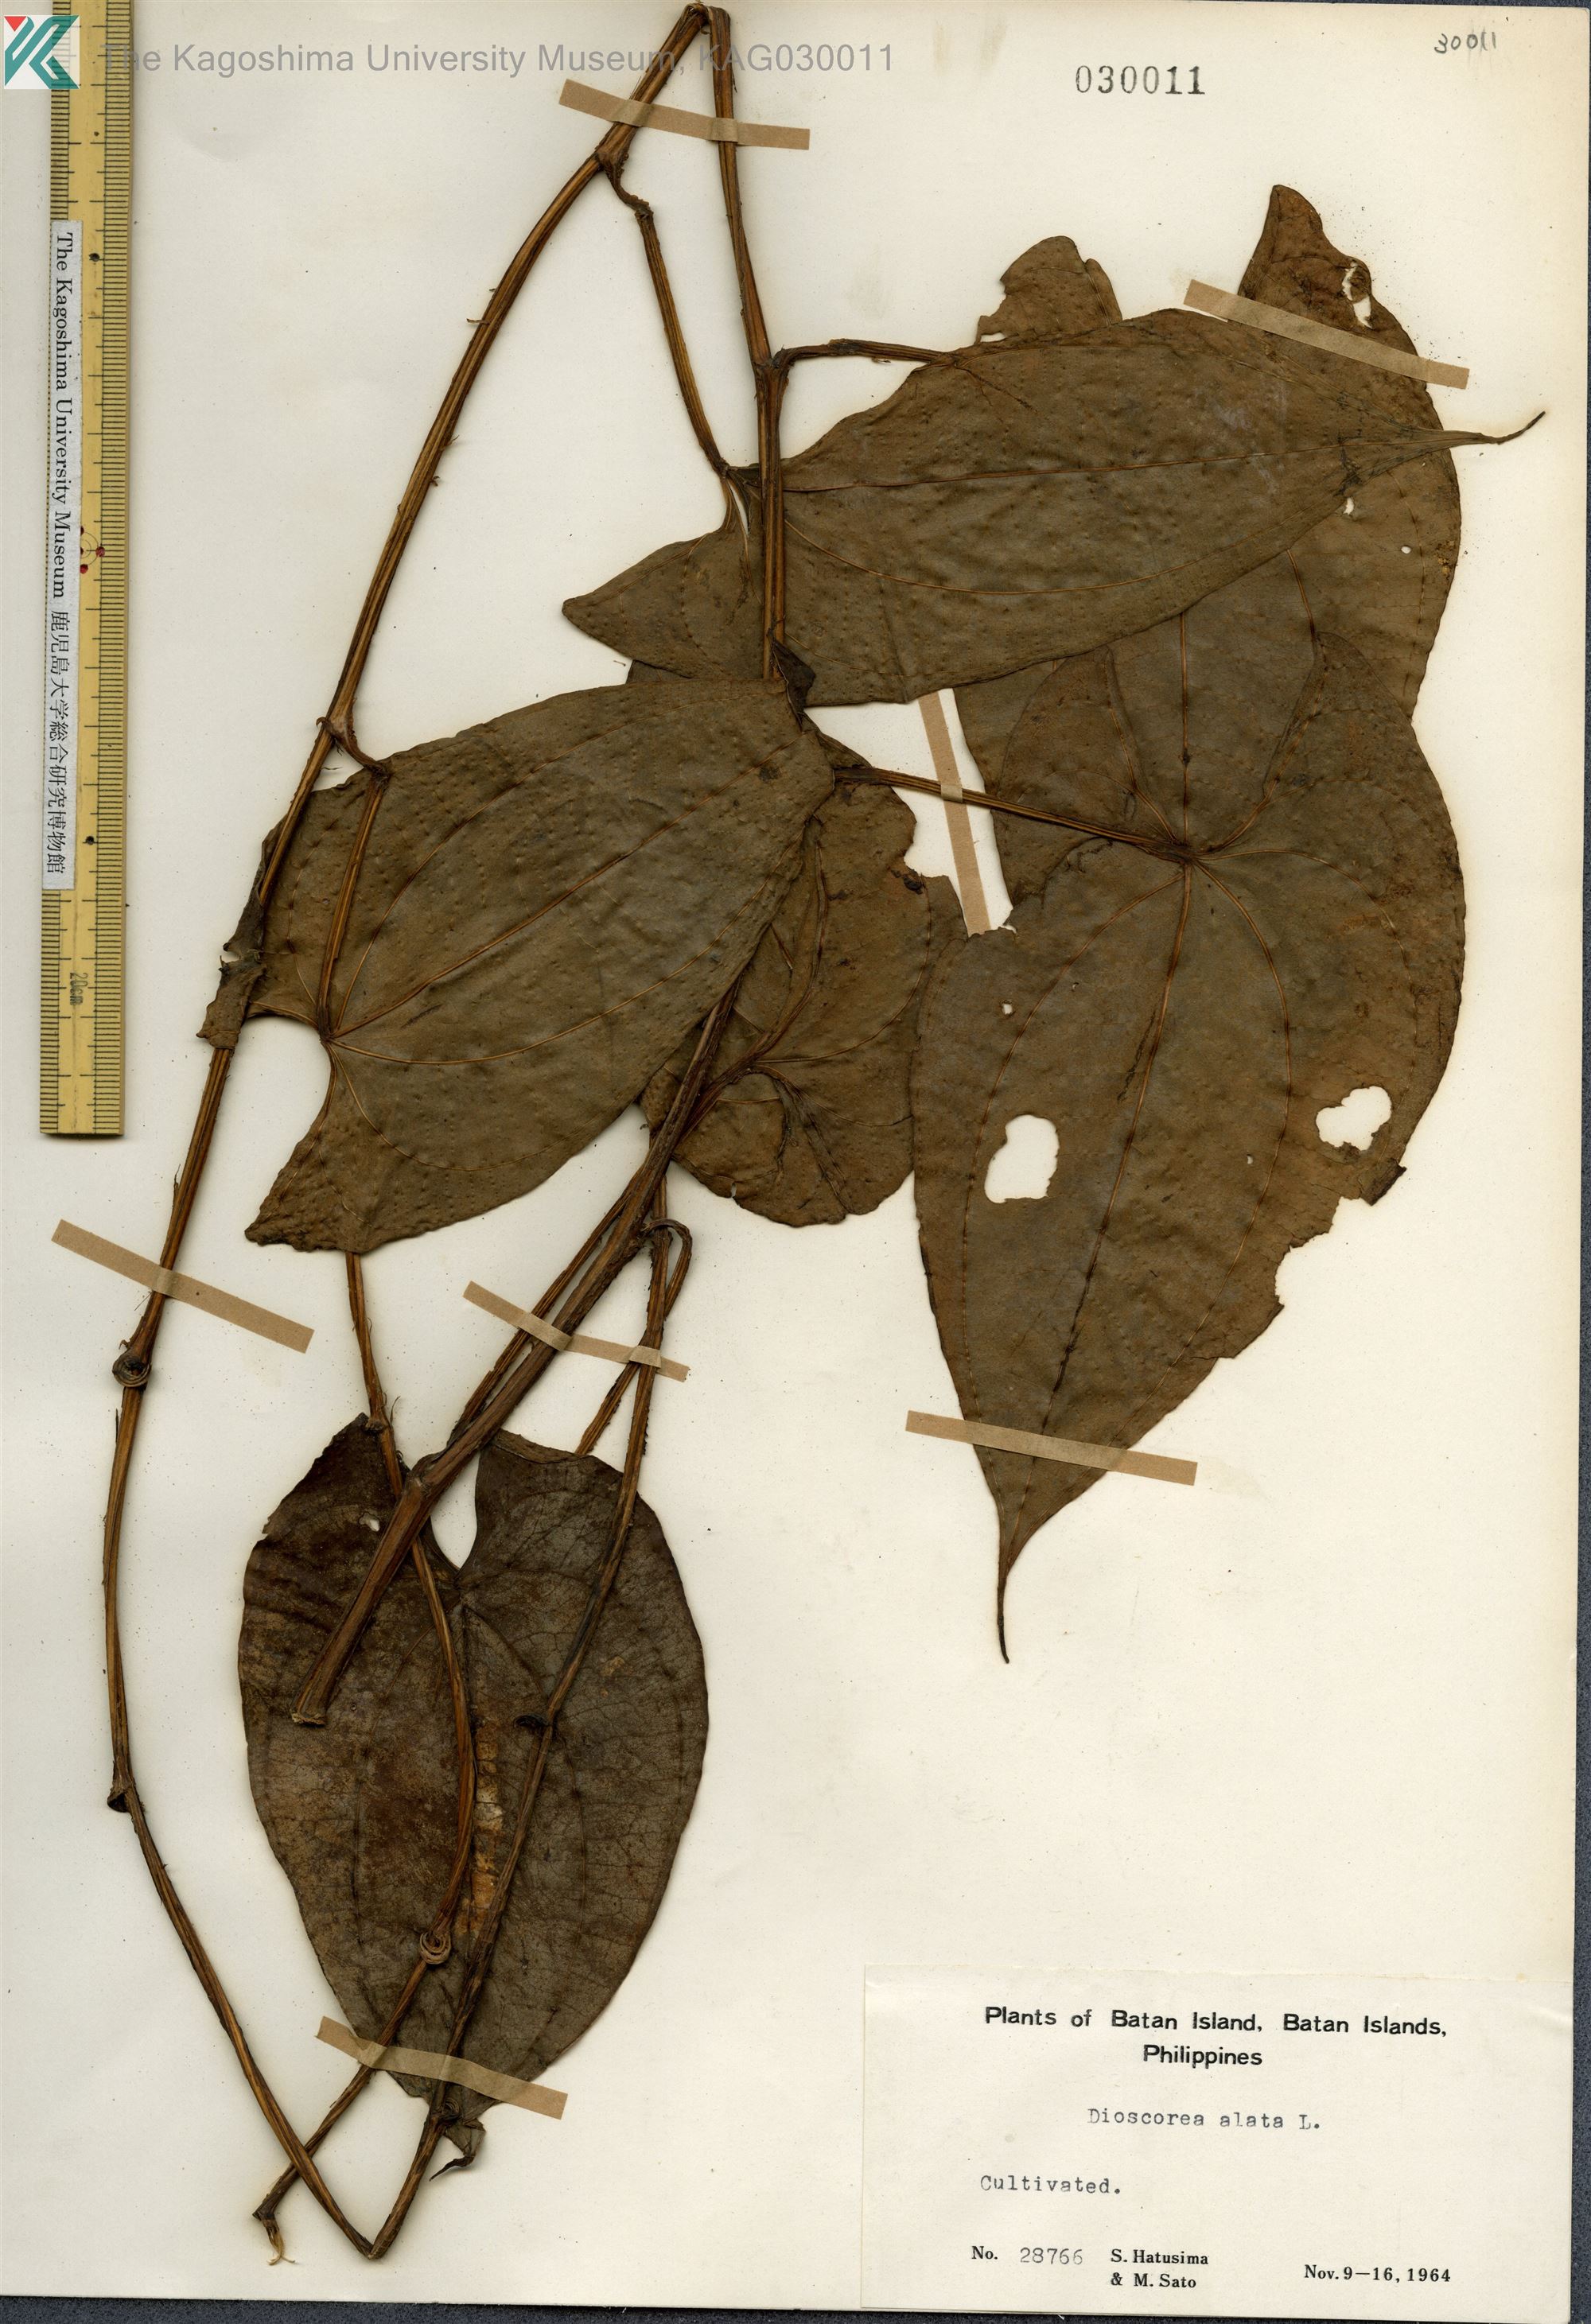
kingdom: Plantae
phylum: Tracheophyta
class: Liliopsida
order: Dioscoreales
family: Dioscoreaceae
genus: Dioscorea
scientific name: Dioscorea alata
